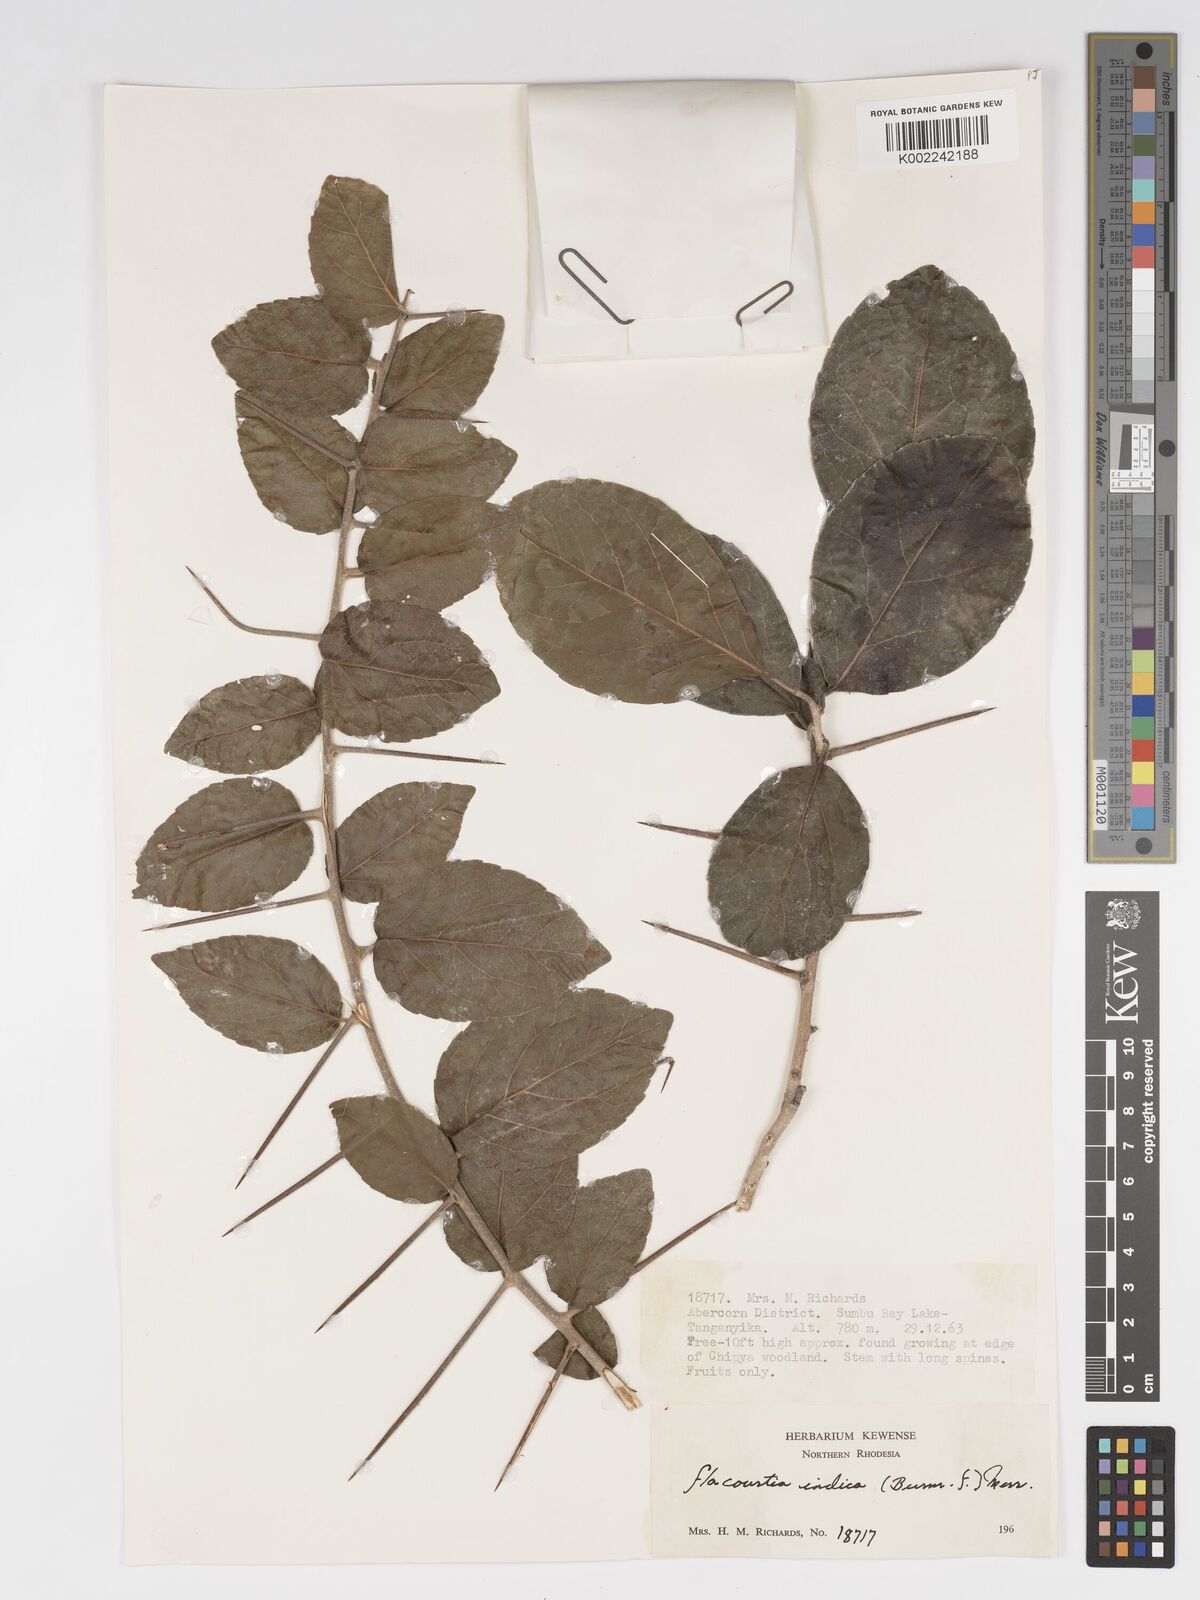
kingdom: Plantae
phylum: Tracheophyta
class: Magnoliopsida
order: Malpighiales
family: Salicaceae
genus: Flacourtia
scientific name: Flacourtia indica
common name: Governor's plum
